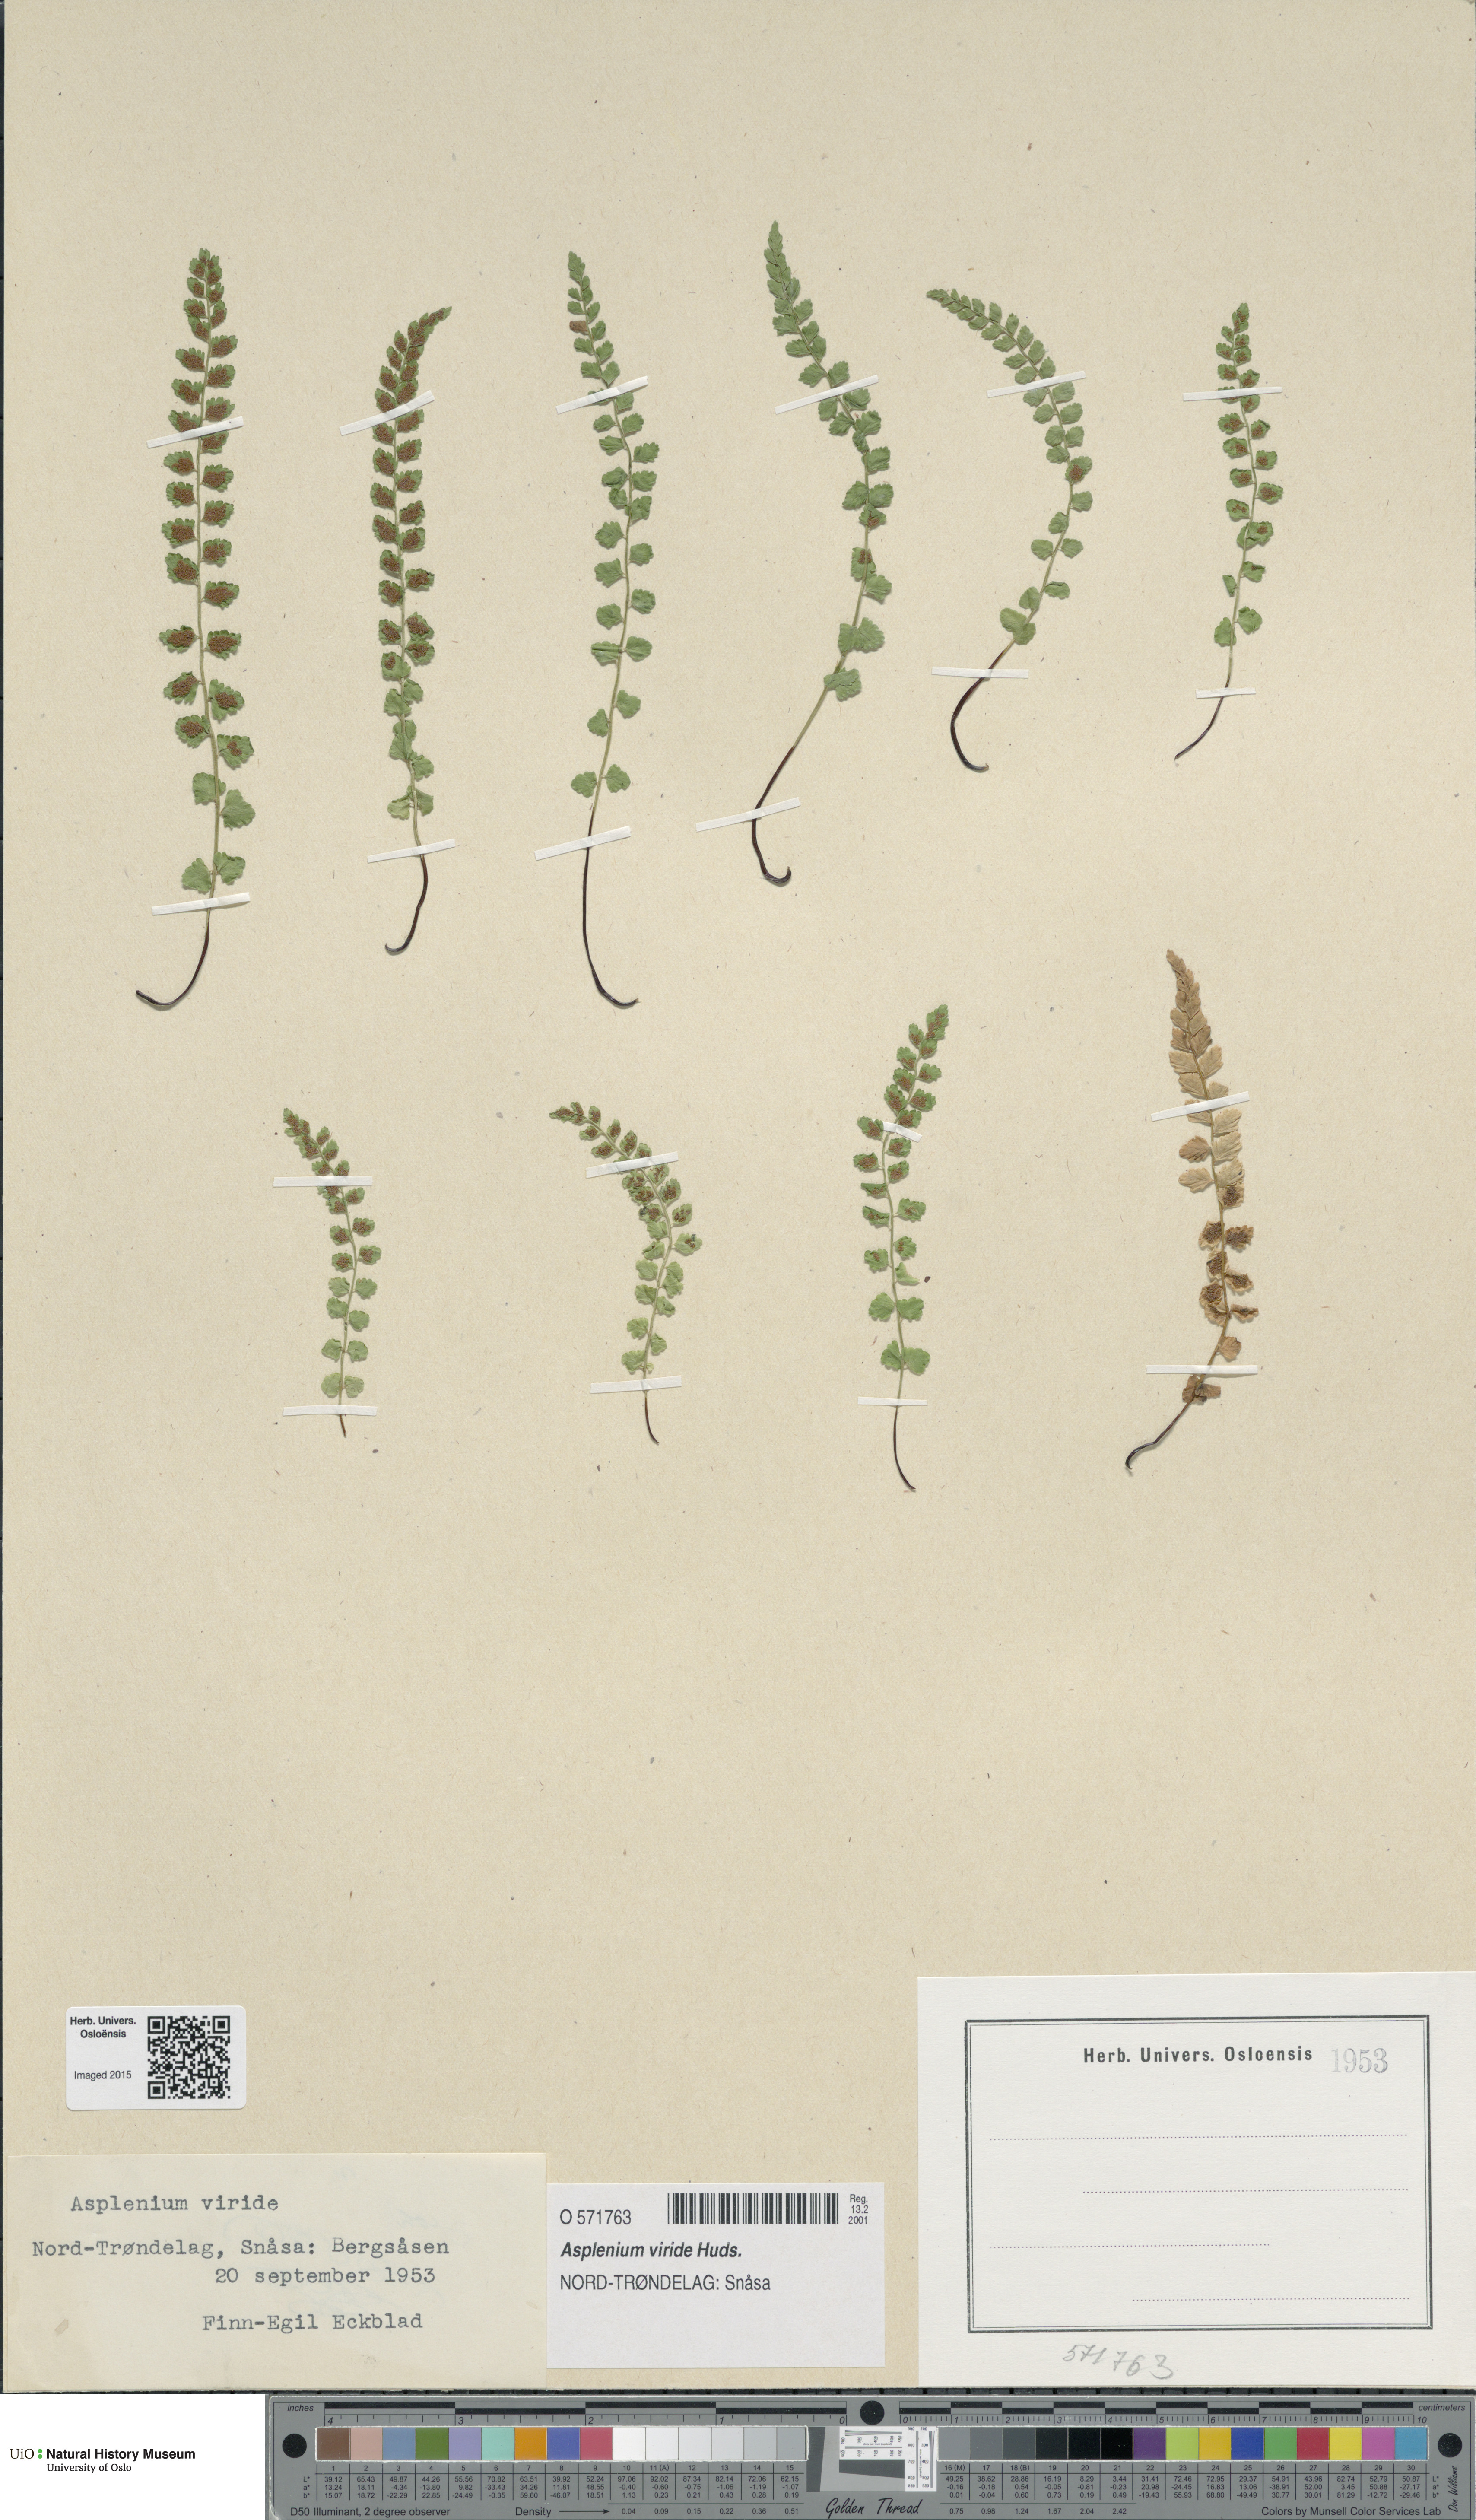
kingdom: Plantae
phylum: Tracheophyta
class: Polypodiopsida
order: Polypodiales
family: Aspleniaceae
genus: Asplenium
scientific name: Asplenium viride
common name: Green spleenwort
